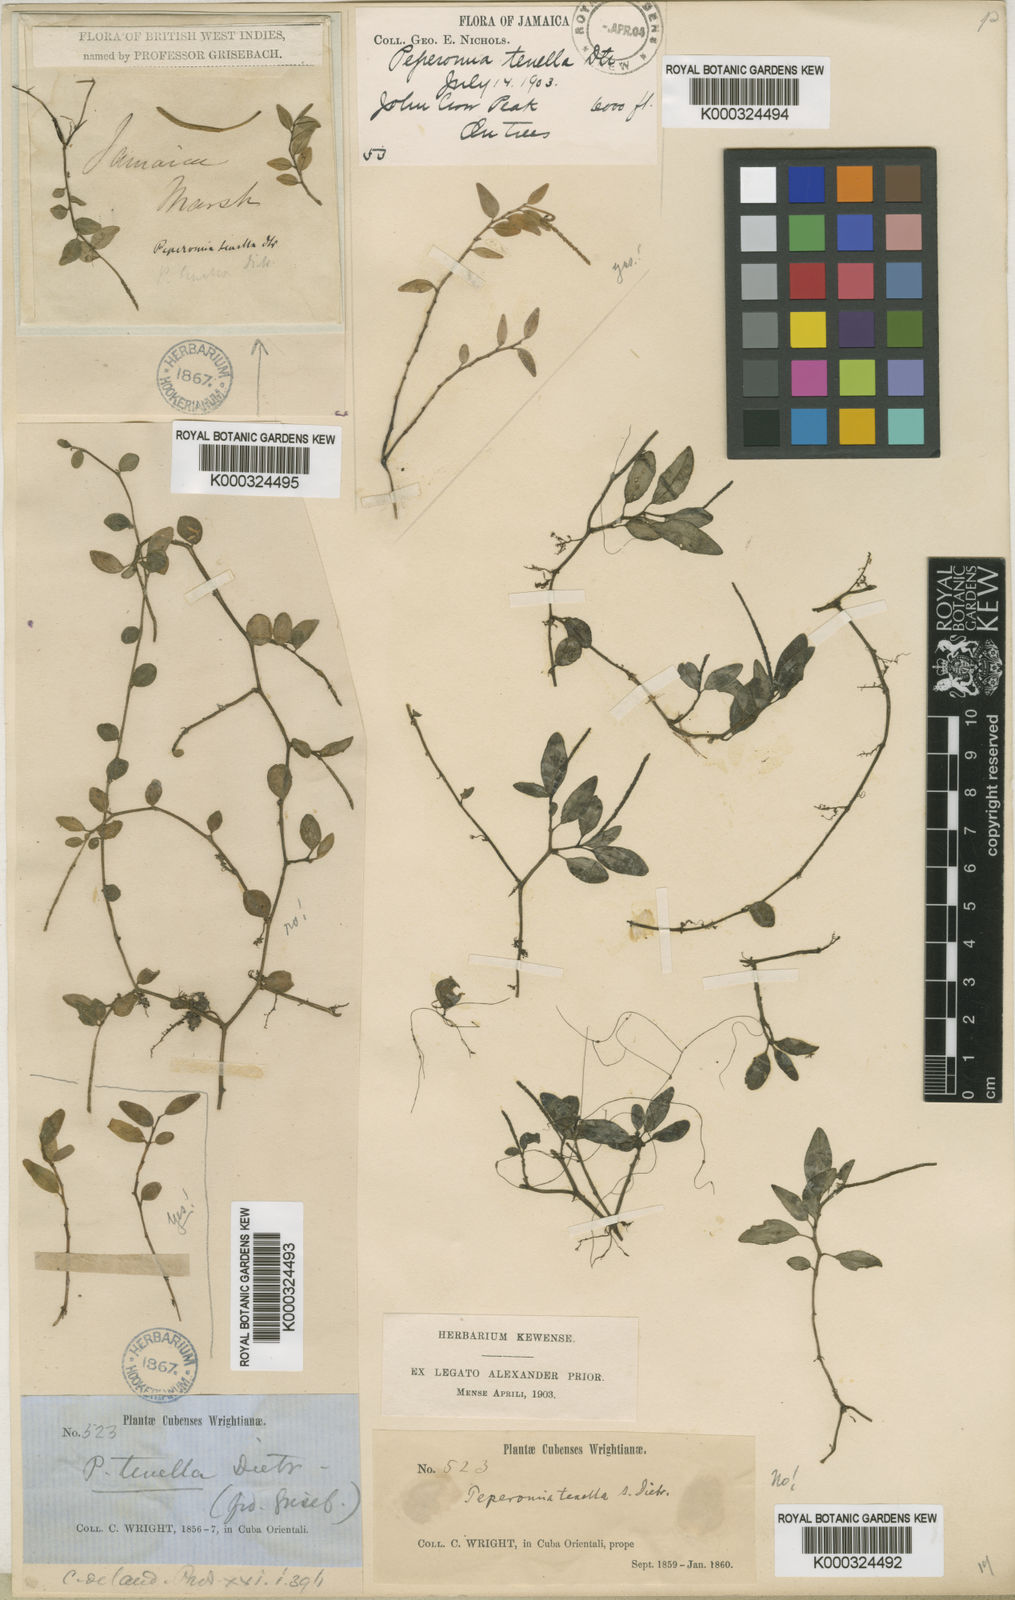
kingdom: Plantae
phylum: Tracheophyta
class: Magnoliopsida
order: Piperales
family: Piperaceae
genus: Peperomia
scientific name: Peperomia tenella
